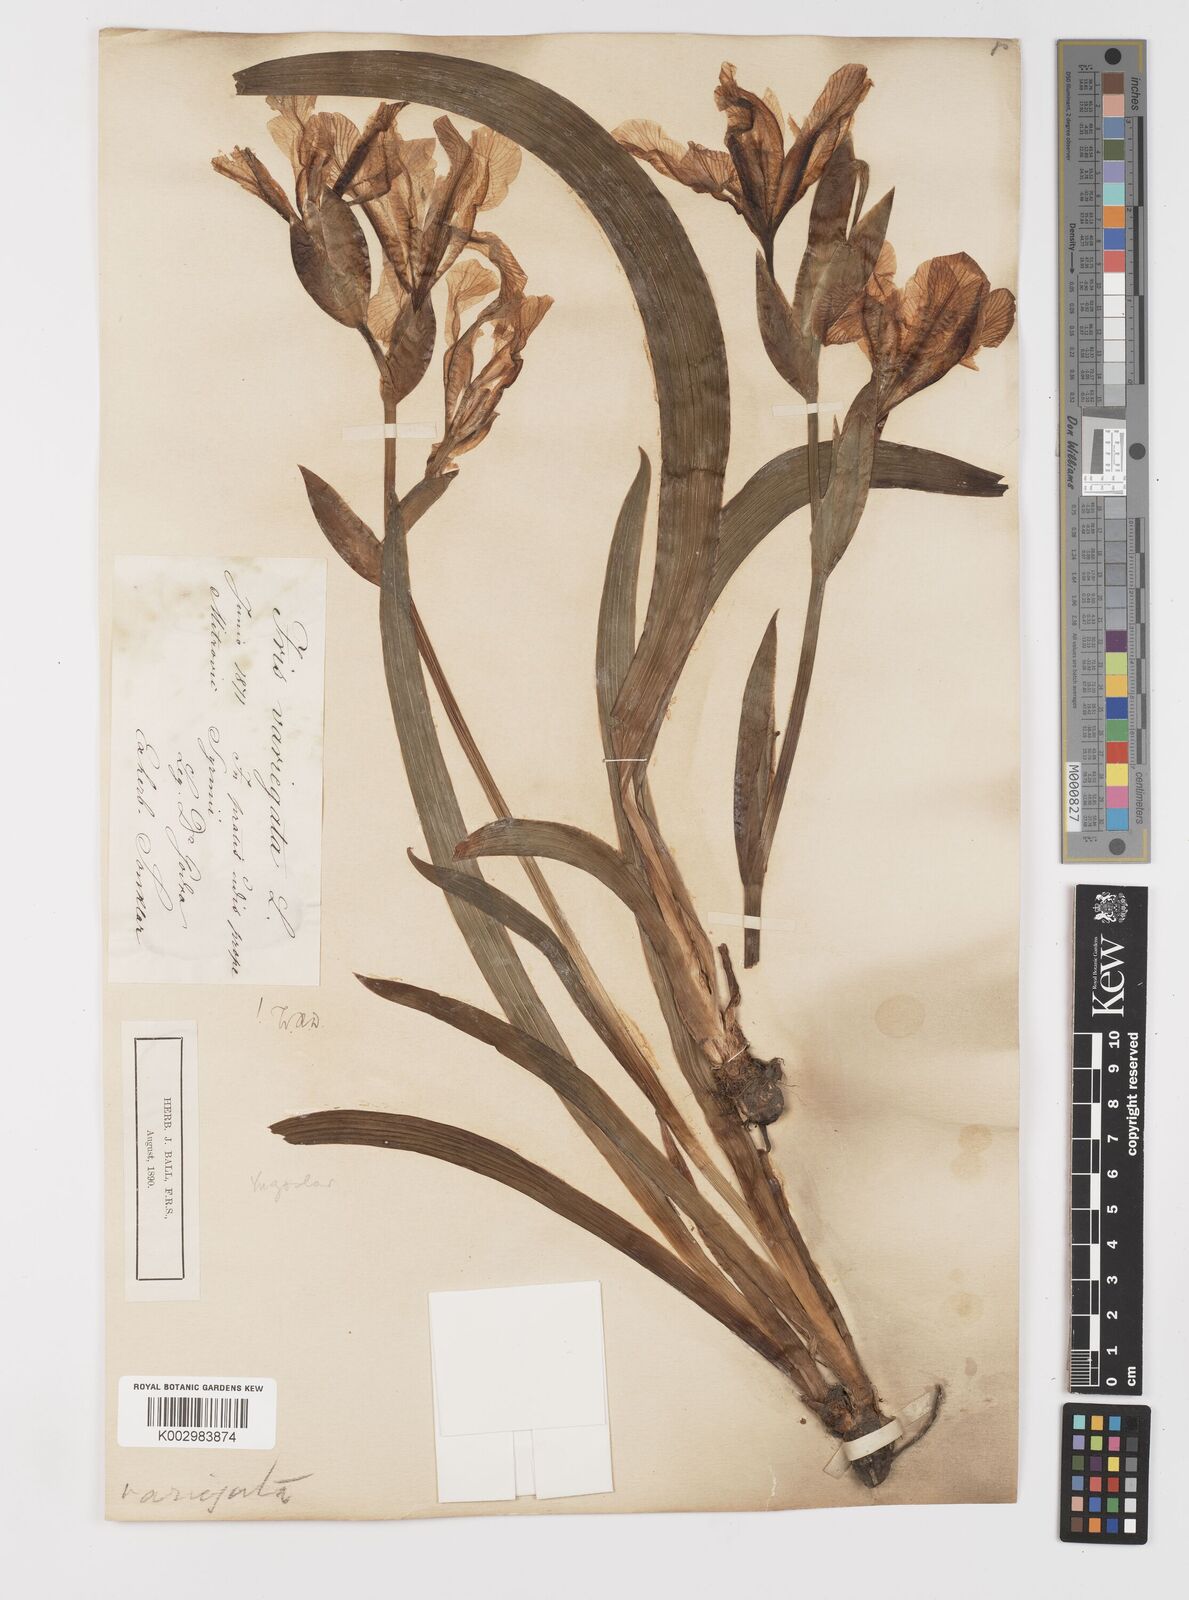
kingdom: Plantae
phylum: Tracheophyta
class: Liliopsida
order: Asparagales
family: Iridaceae
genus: Iris
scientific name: Iris variegata
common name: Hungarian iris
